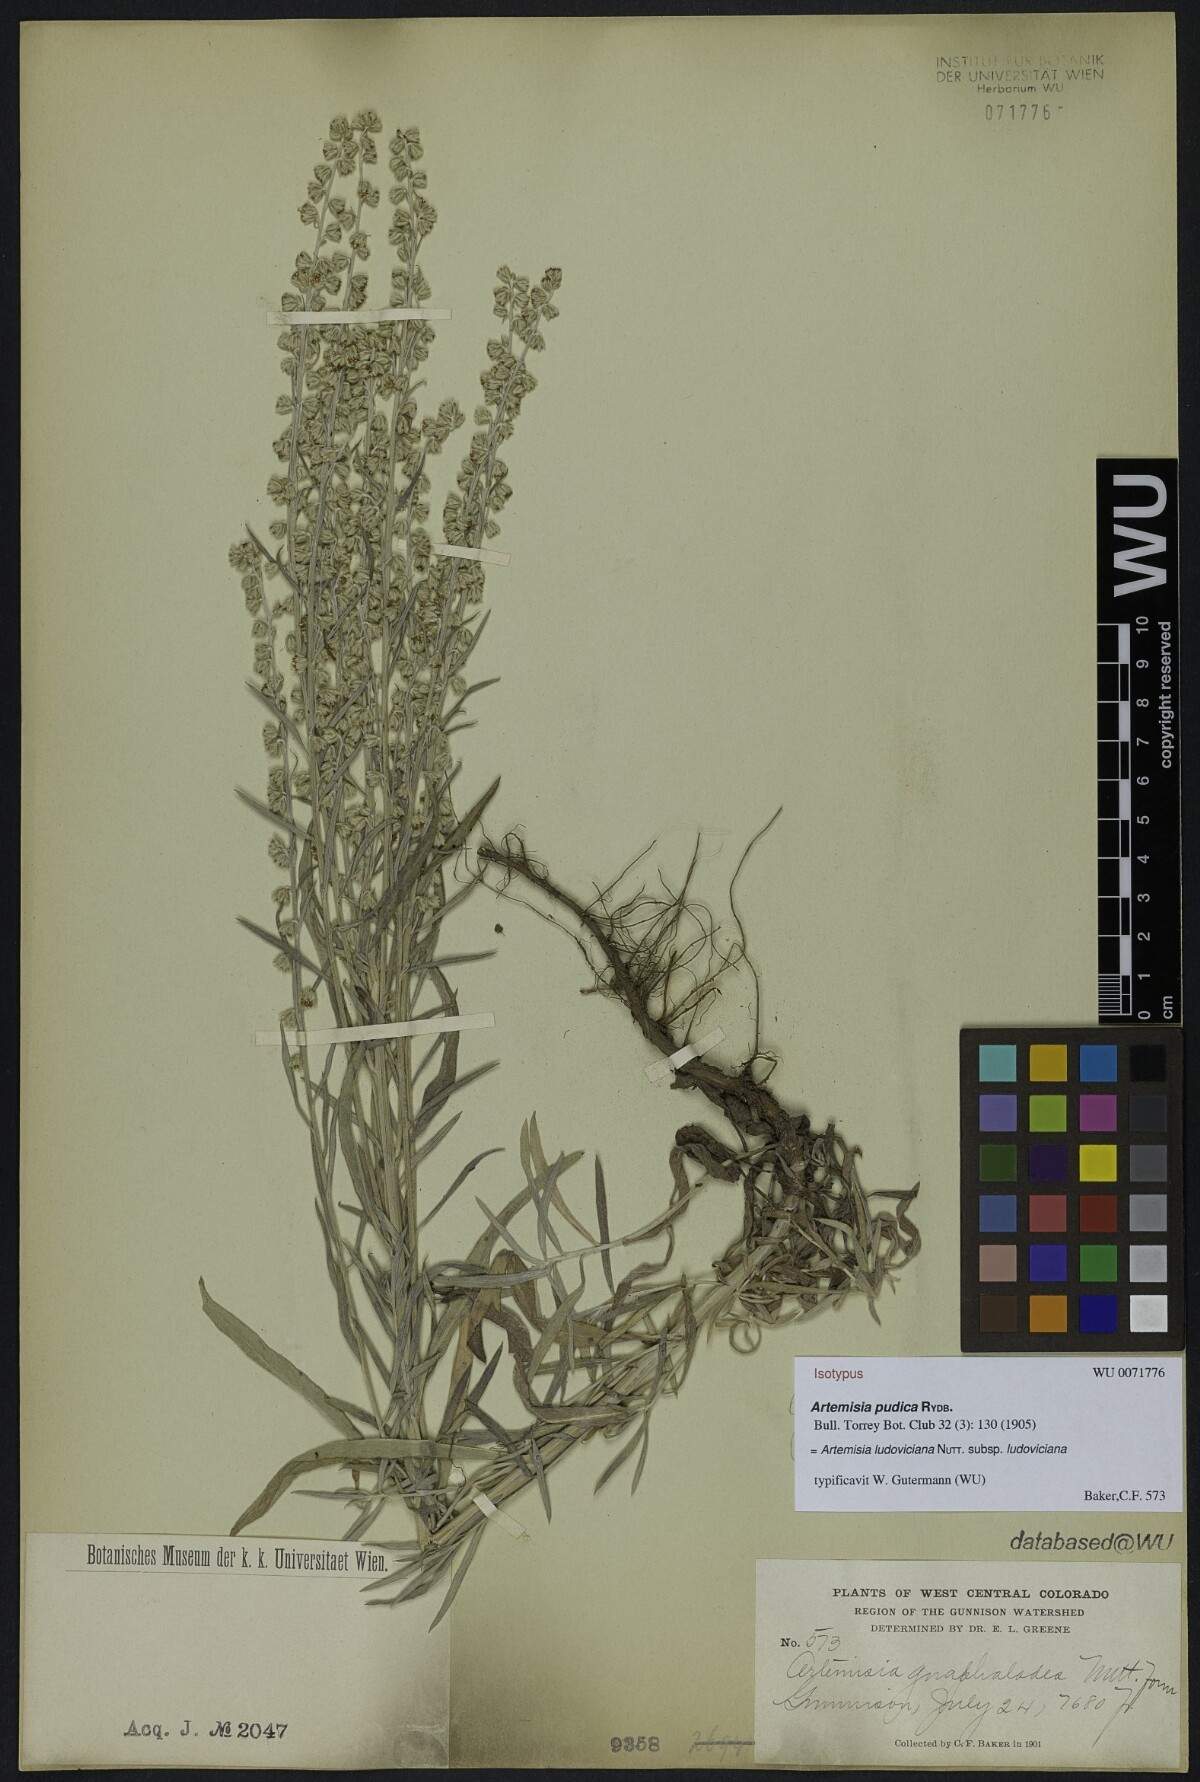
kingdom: Plantae
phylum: Tracheophyta
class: Magnoliopsida
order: Asterales
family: Asteraceae
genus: Artemisia
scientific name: Artemisia ludoviciana
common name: Western mugwort
